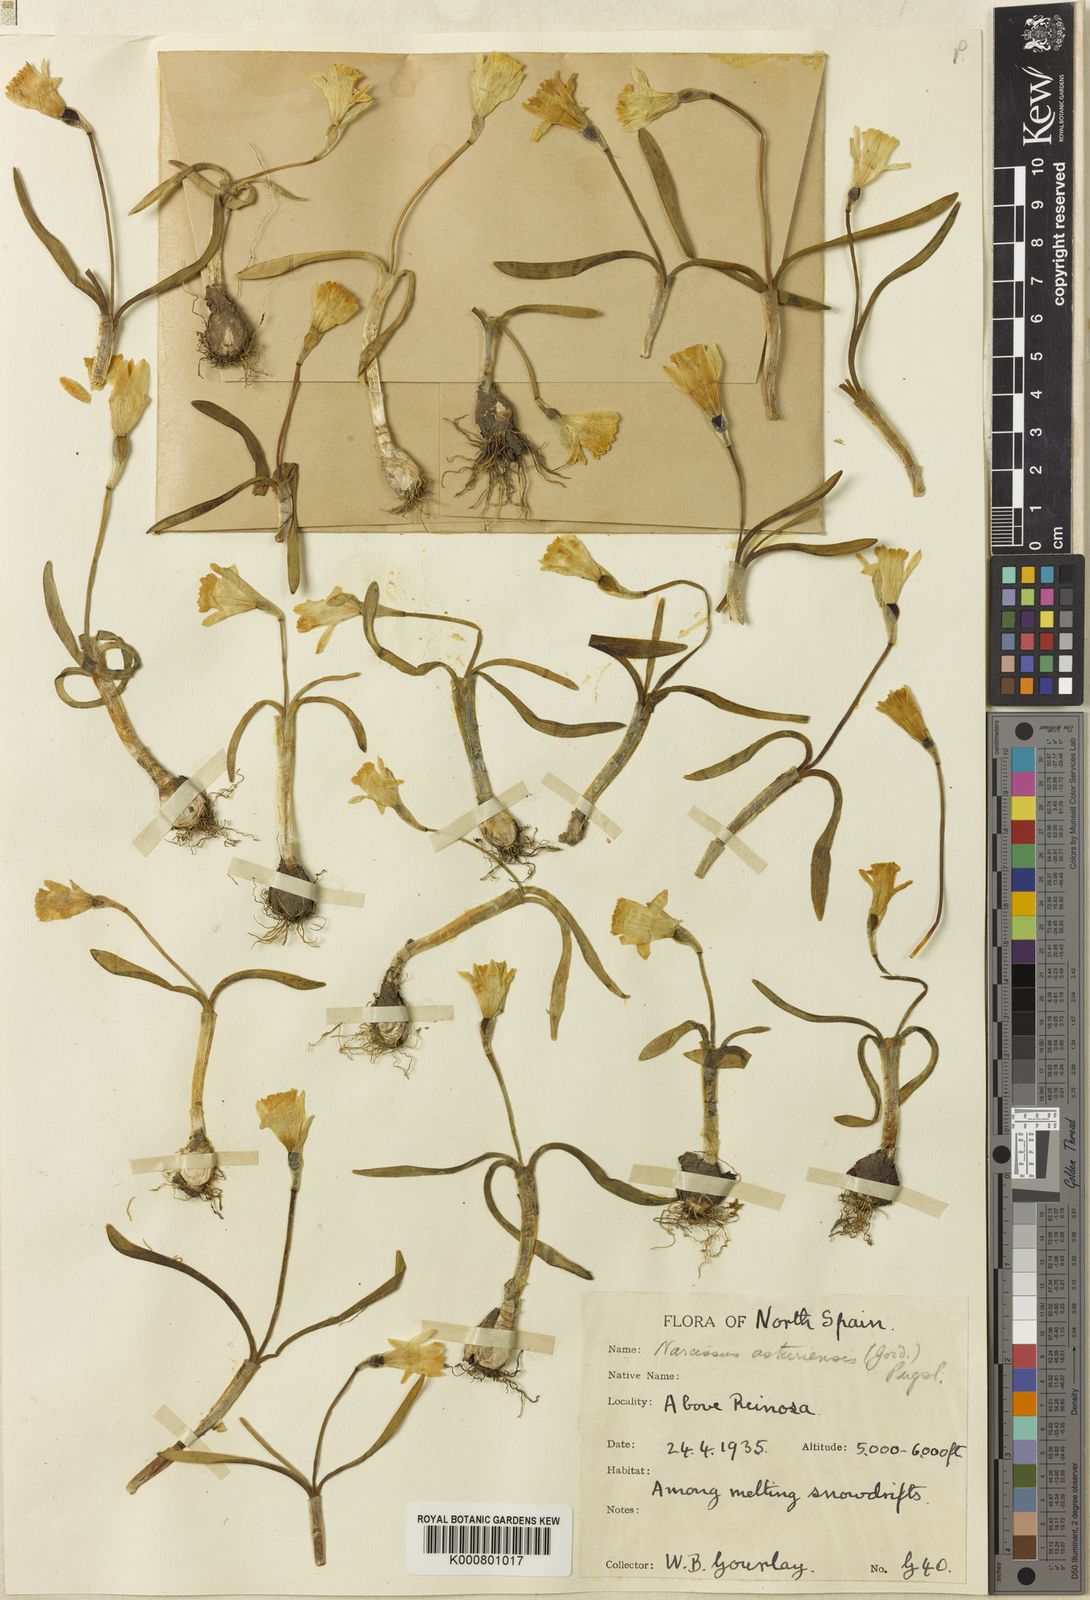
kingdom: Plantae
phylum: Tracheophyta
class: Liliopsida
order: Asparagales
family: Amaryllidaceae
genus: Narcissus
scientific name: Narcissus cuneiflorus
